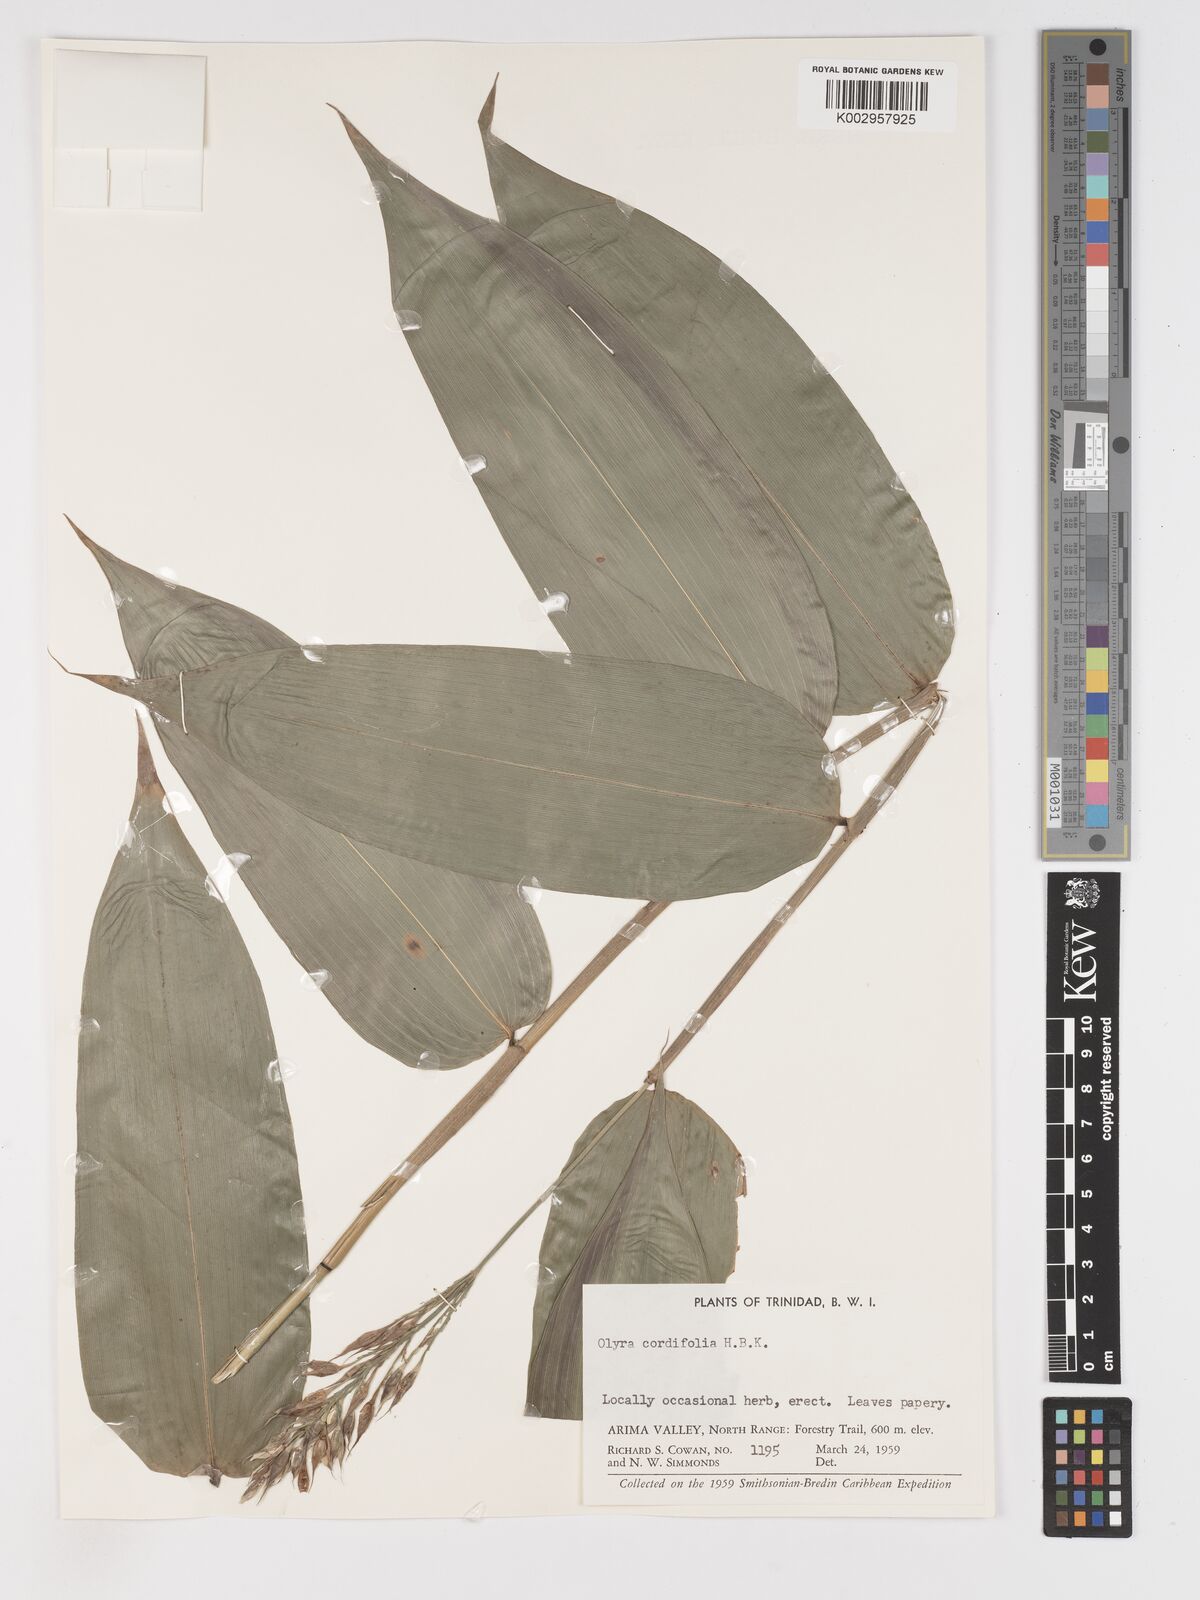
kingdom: Plantae
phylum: Tracheophyta
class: Liliopsida
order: Poales
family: Poaceae
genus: Olyra
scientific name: Olyra latifolia
